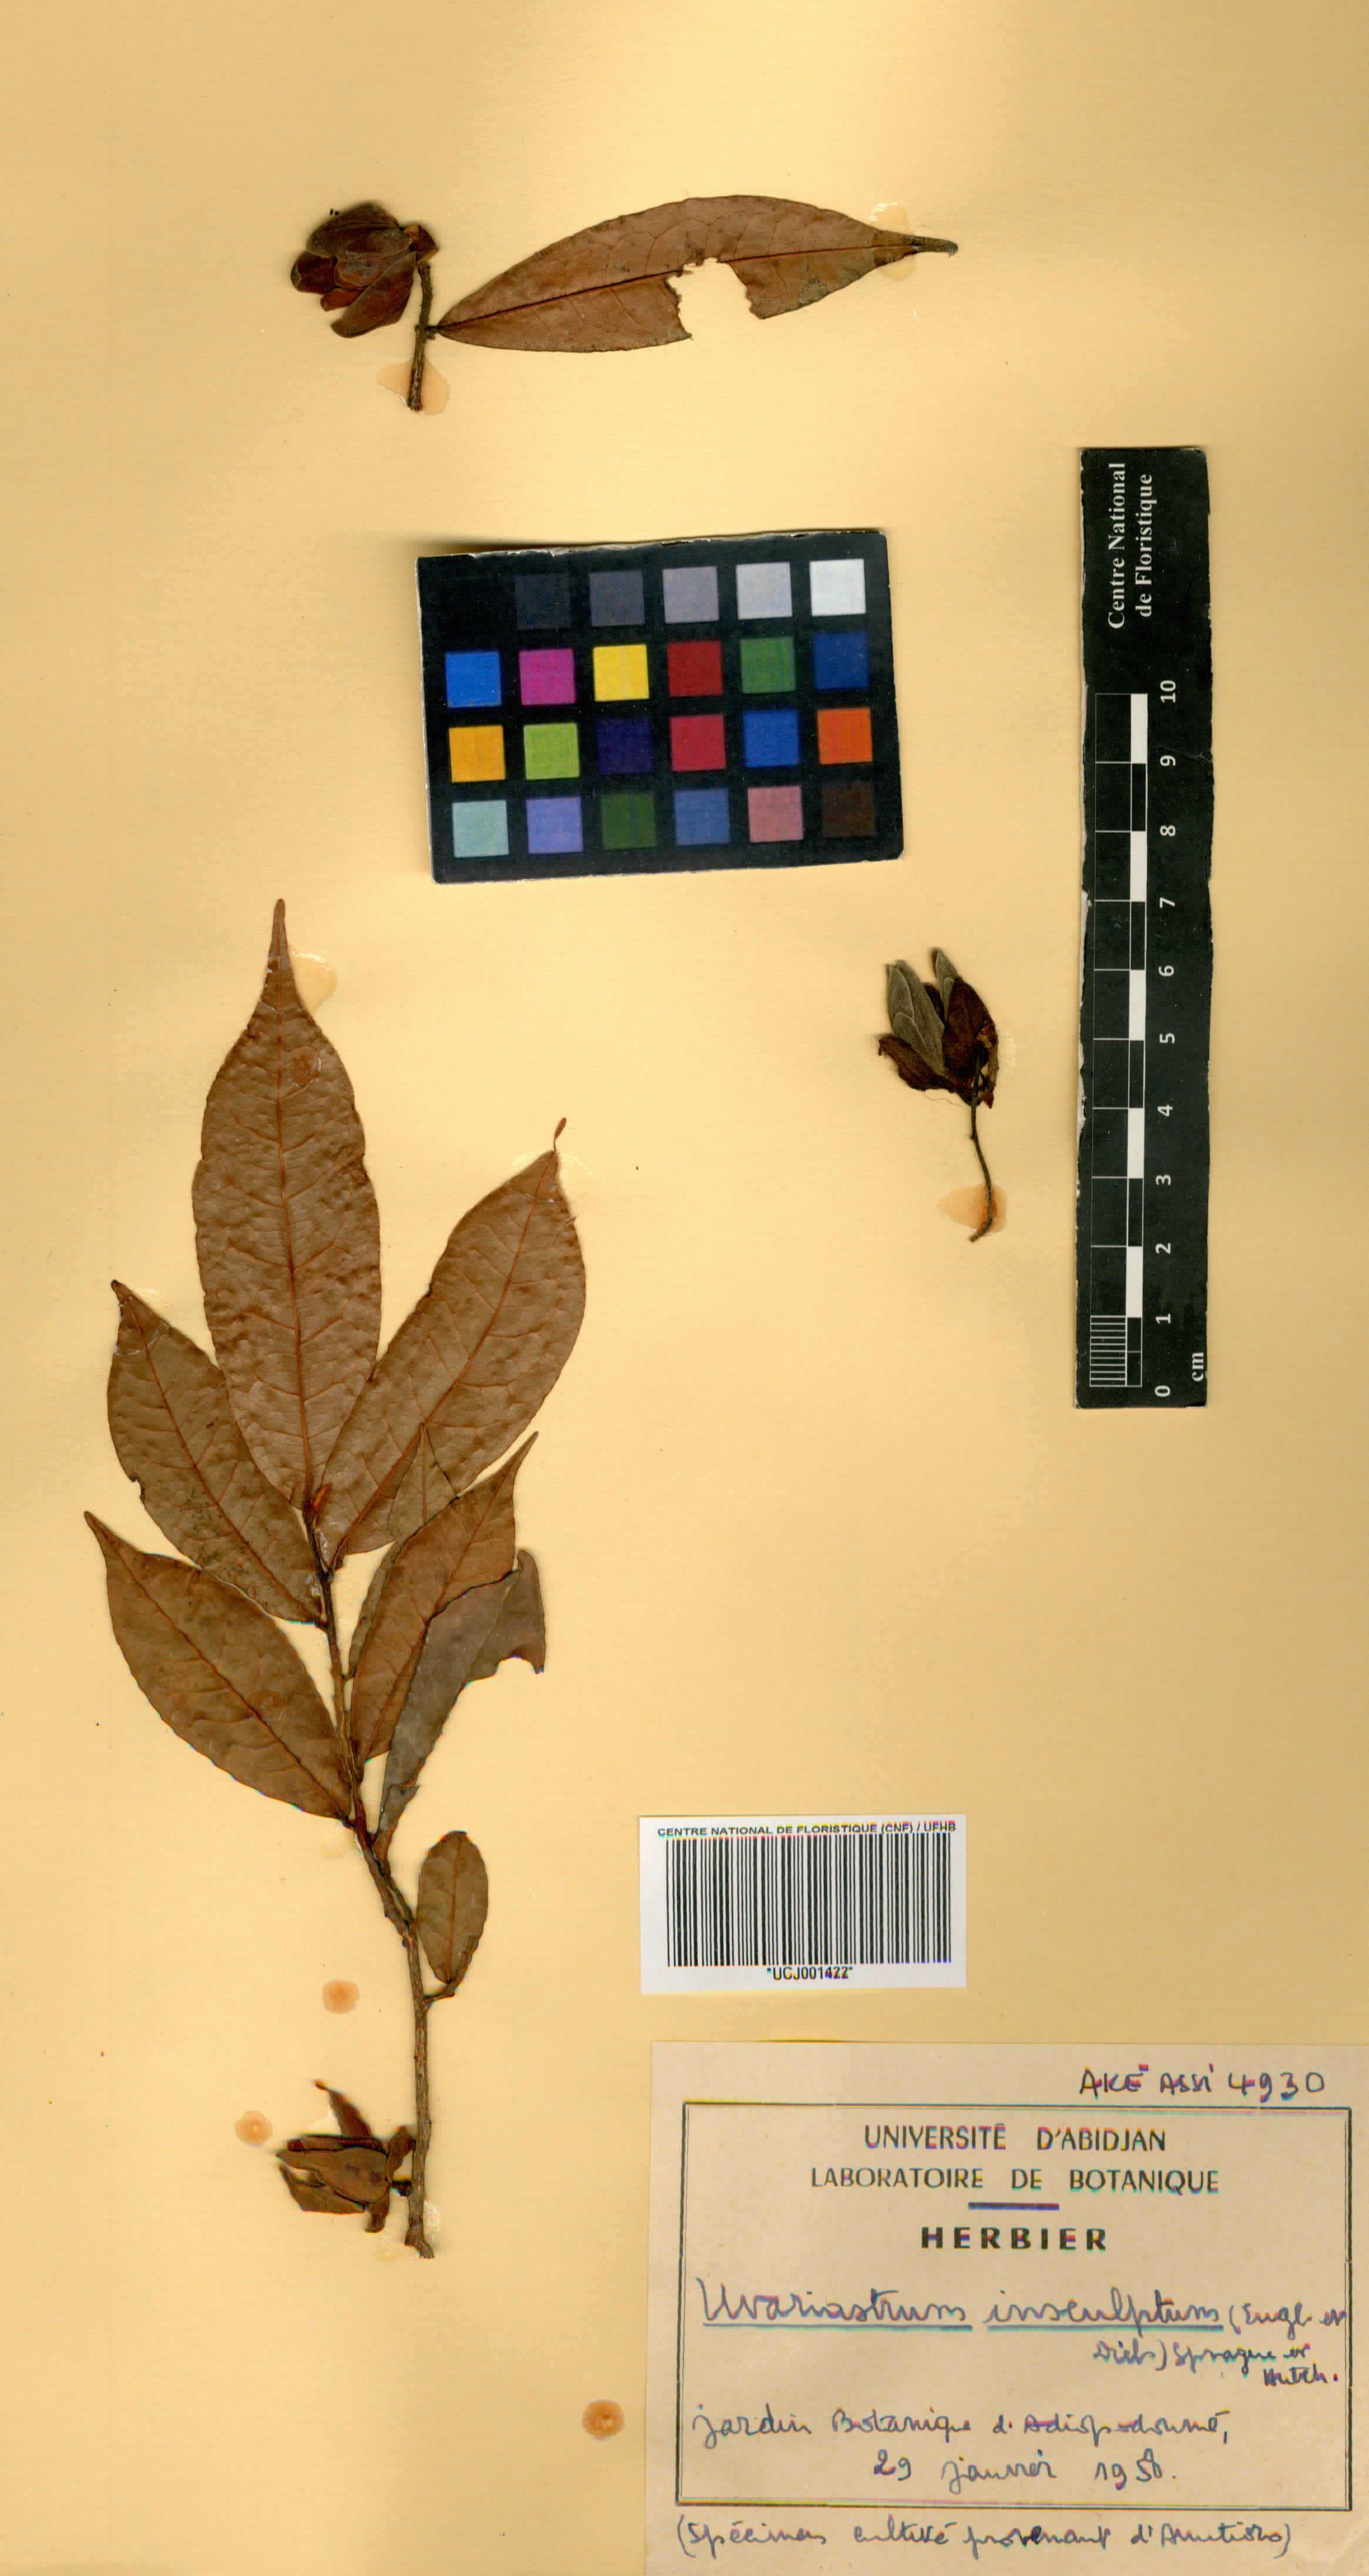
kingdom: Plantae
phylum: Tracheophyta
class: Magnoliopsida
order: Magnoliales
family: Annonaceae
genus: Uvariastrum
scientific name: Uvariastrum pierreanum
